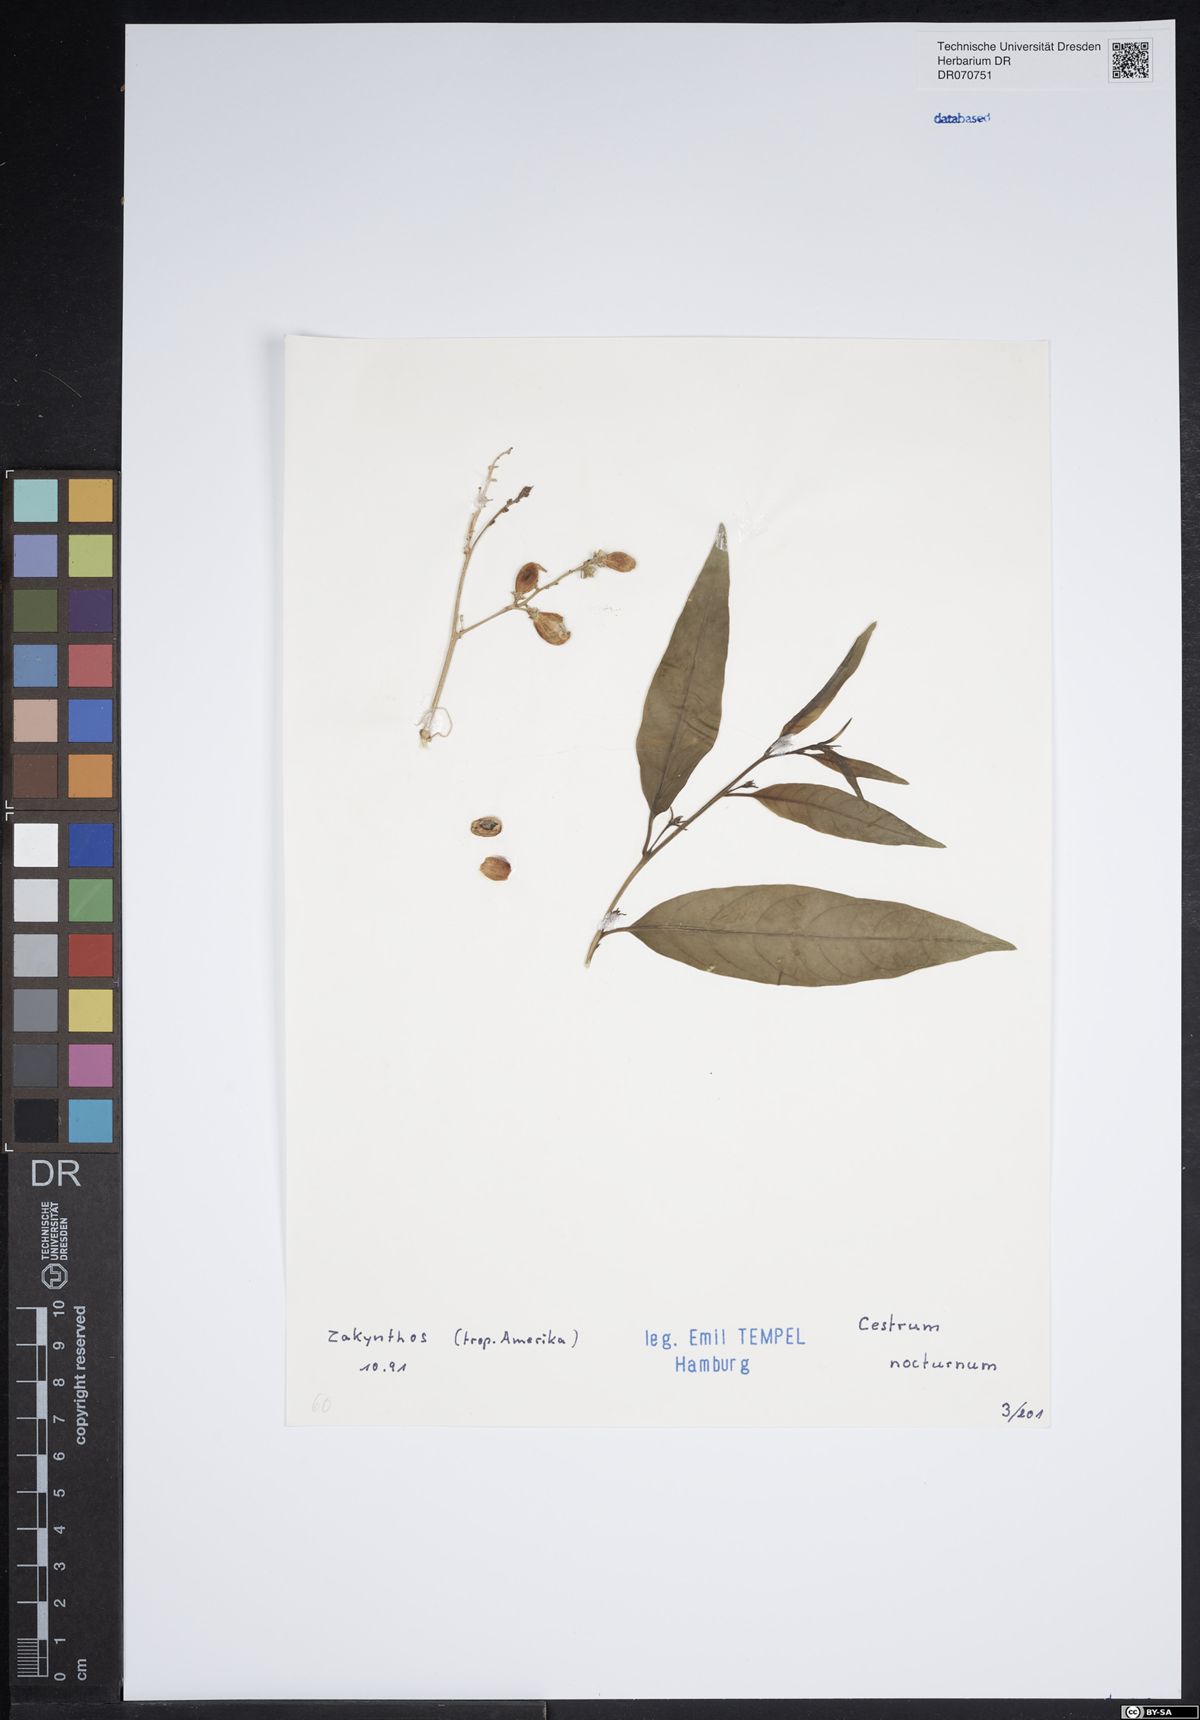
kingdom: Plantae
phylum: Tracheophyta
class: Magnoliopsida
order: Solanales
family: Solanaceae
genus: Cestrum
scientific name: Cestrum nocturnum
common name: Night jessamine
